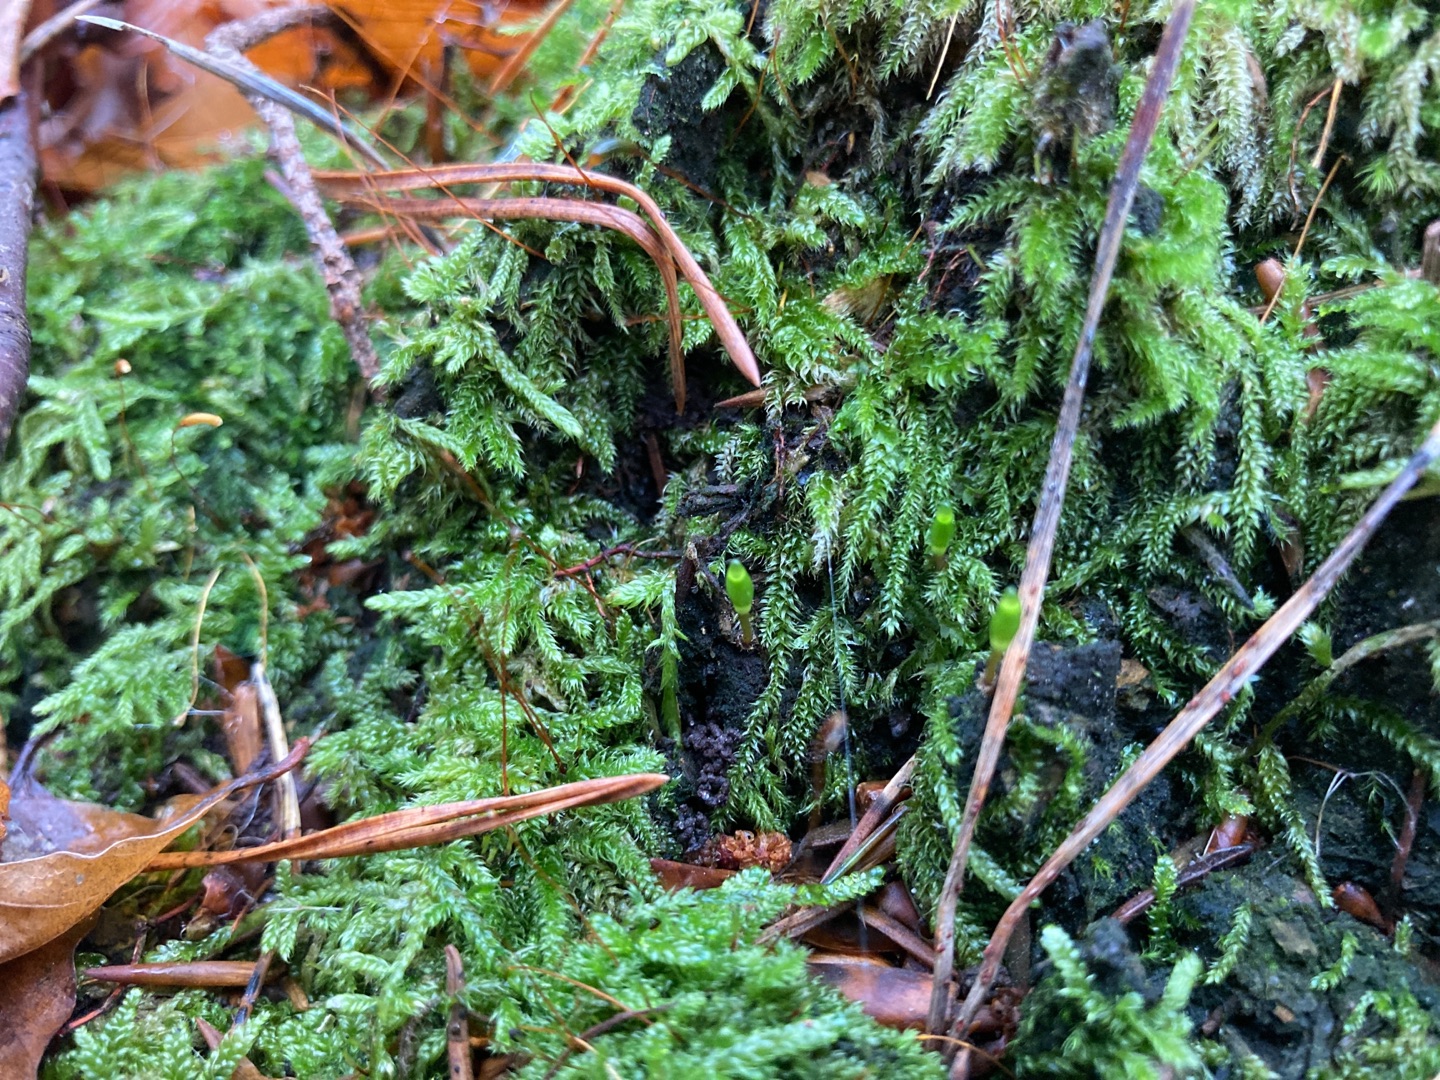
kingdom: Plantae
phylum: Bryophyta
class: Bryopsida
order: Buxbaumiales
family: Buxbaumiaceae
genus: Buxbaumia
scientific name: Buxbaumia viridis
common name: Grøn buxbaumia
